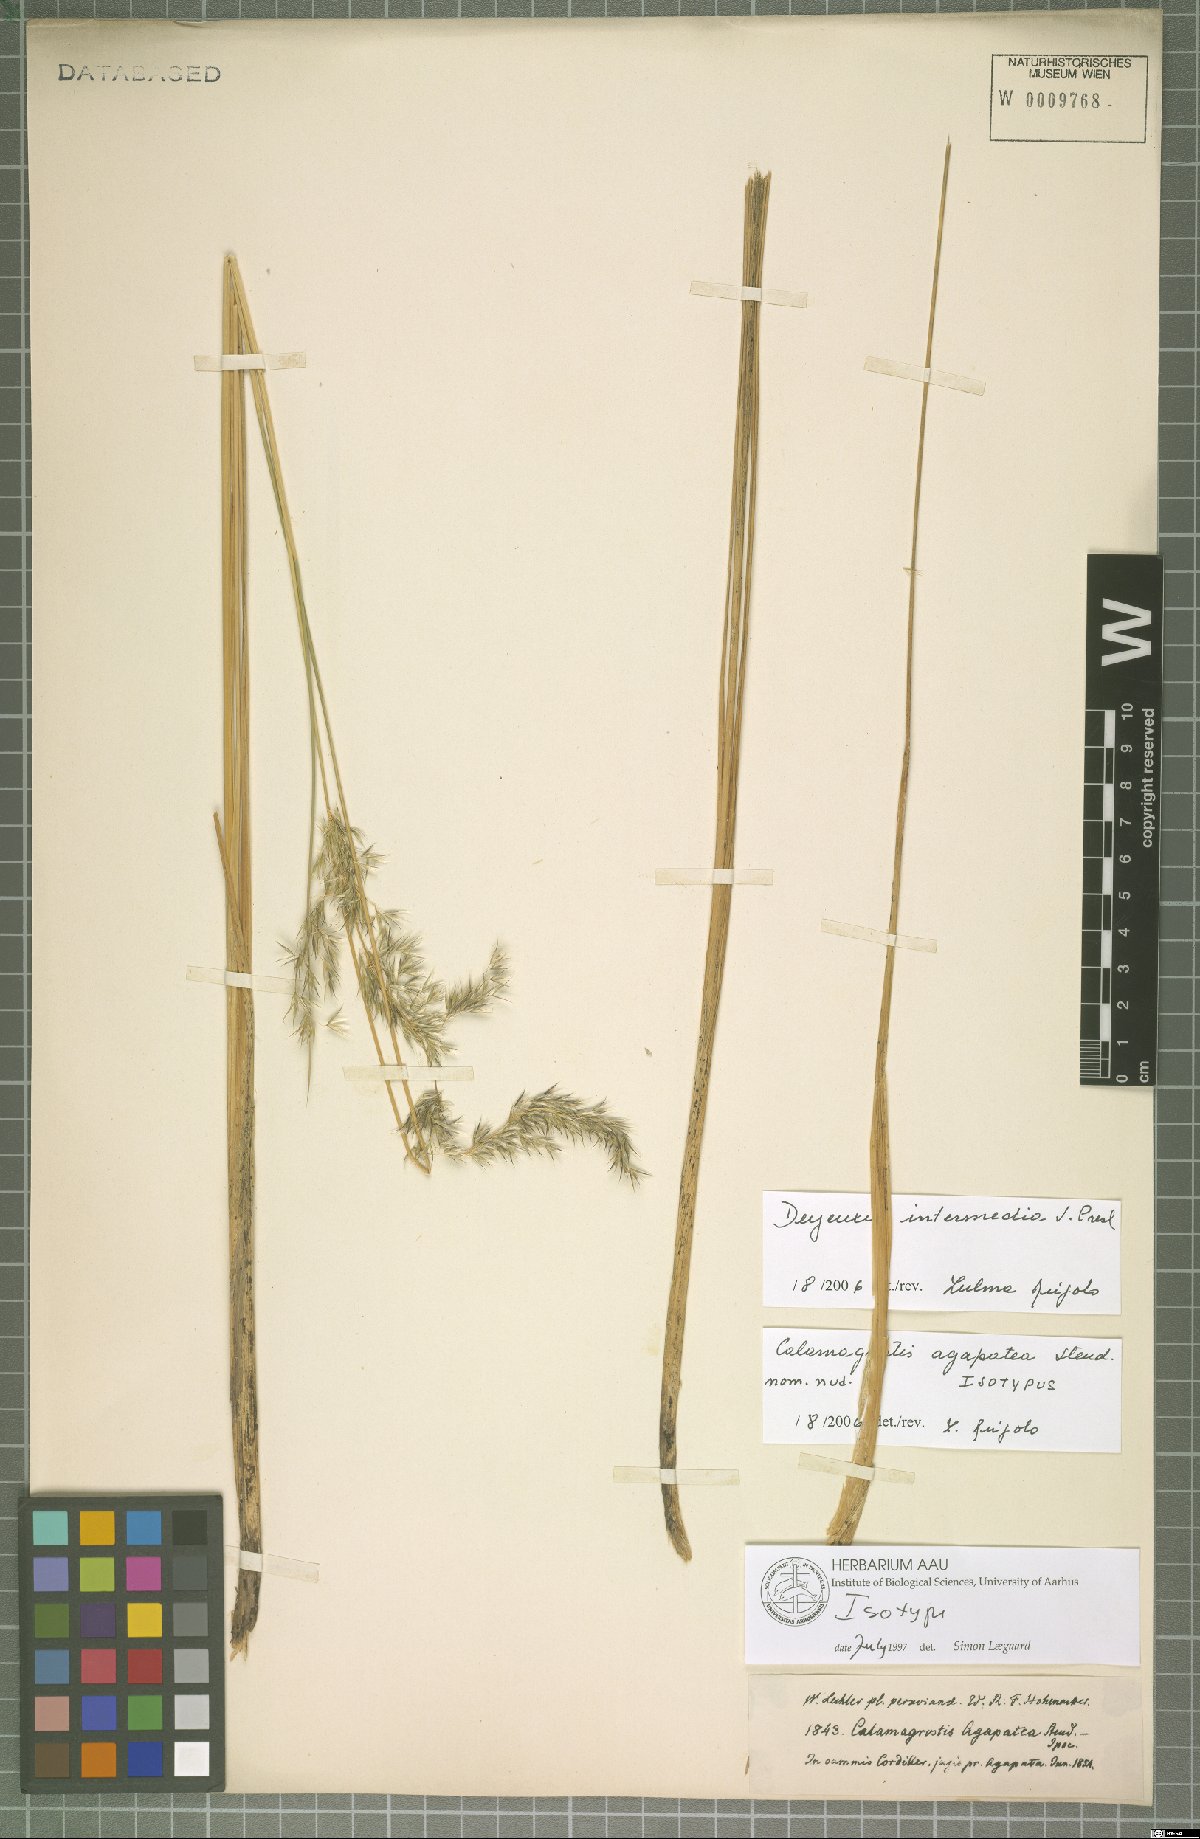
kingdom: Plantae
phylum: Tracheophyta
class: Liliopsida
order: Poales
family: Poaceae
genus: Cinnagrostis
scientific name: Cinnagrostis intermedia
